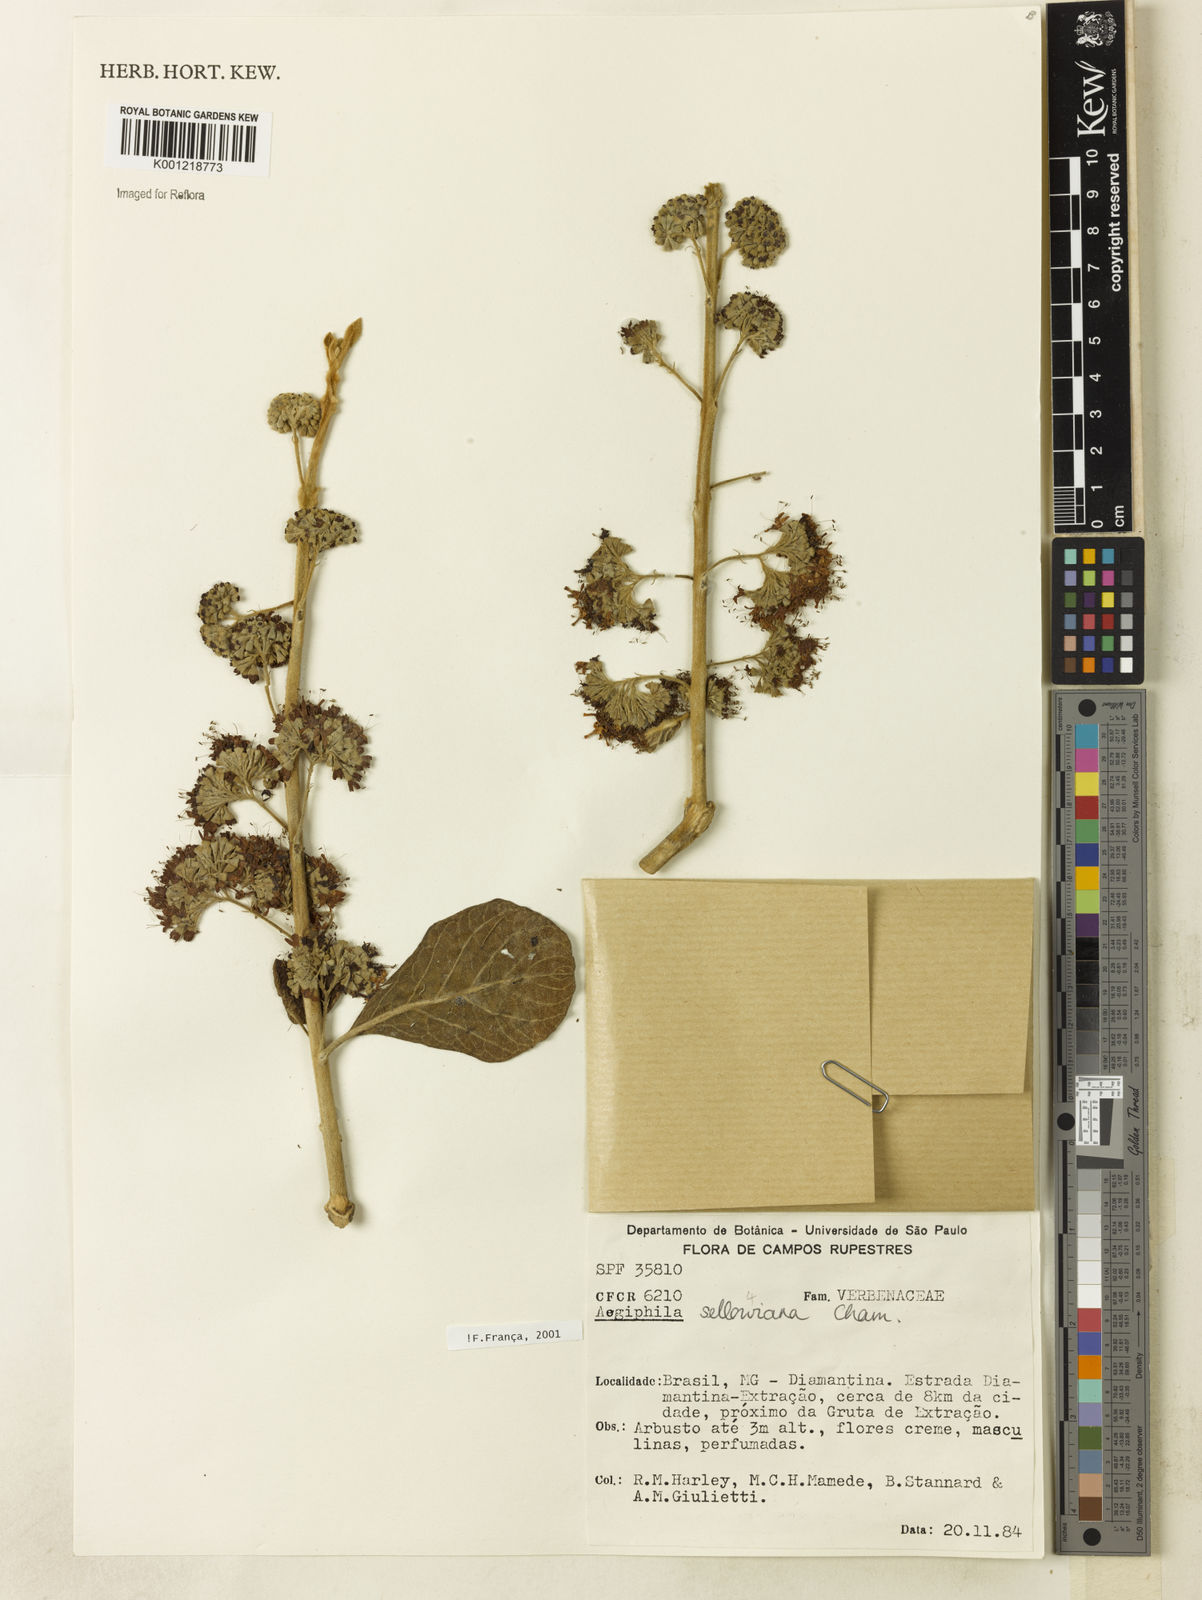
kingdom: Plantae
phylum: Tracheophyta
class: Magnoliopsida
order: Lamiales
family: Lamiaceae
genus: Aegiphila
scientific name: Aegiphila verticillata
